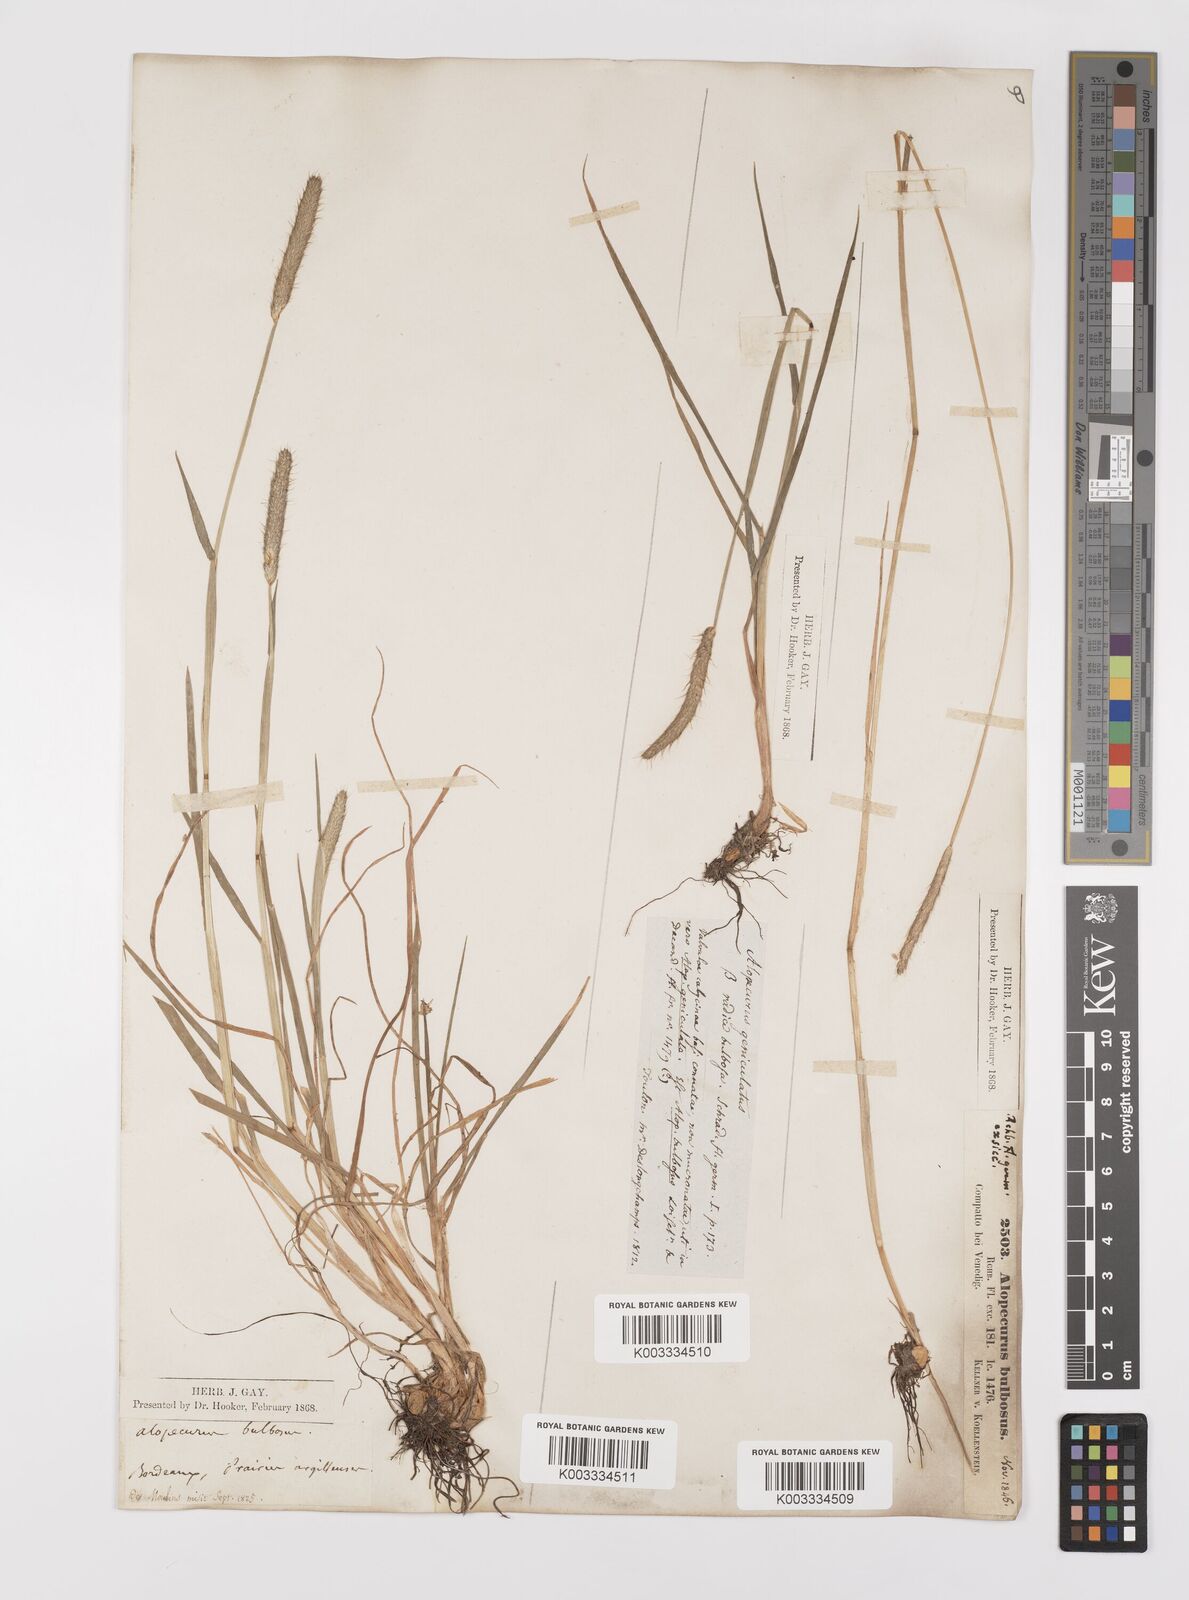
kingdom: Plantae
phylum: Tracheophyta
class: Liliopsida
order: Poales
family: Poaceae
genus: Alopecurus
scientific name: Alopecurus bulbosus
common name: Bulbous foxtail
